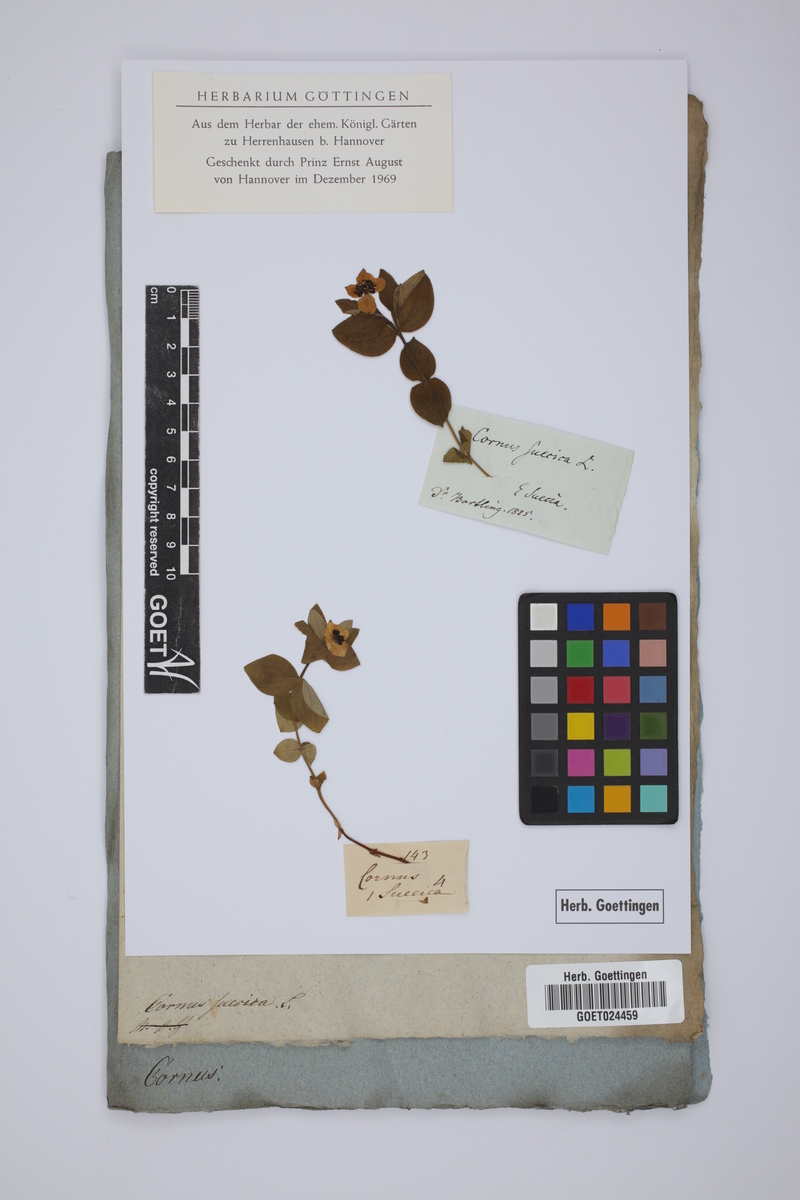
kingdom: Plantae
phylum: Tracheophyta
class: Magnoliopsida
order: Cornales
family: Cornaceae
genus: Cornus
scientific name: Cornus suecica
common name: Dwarf cornel
